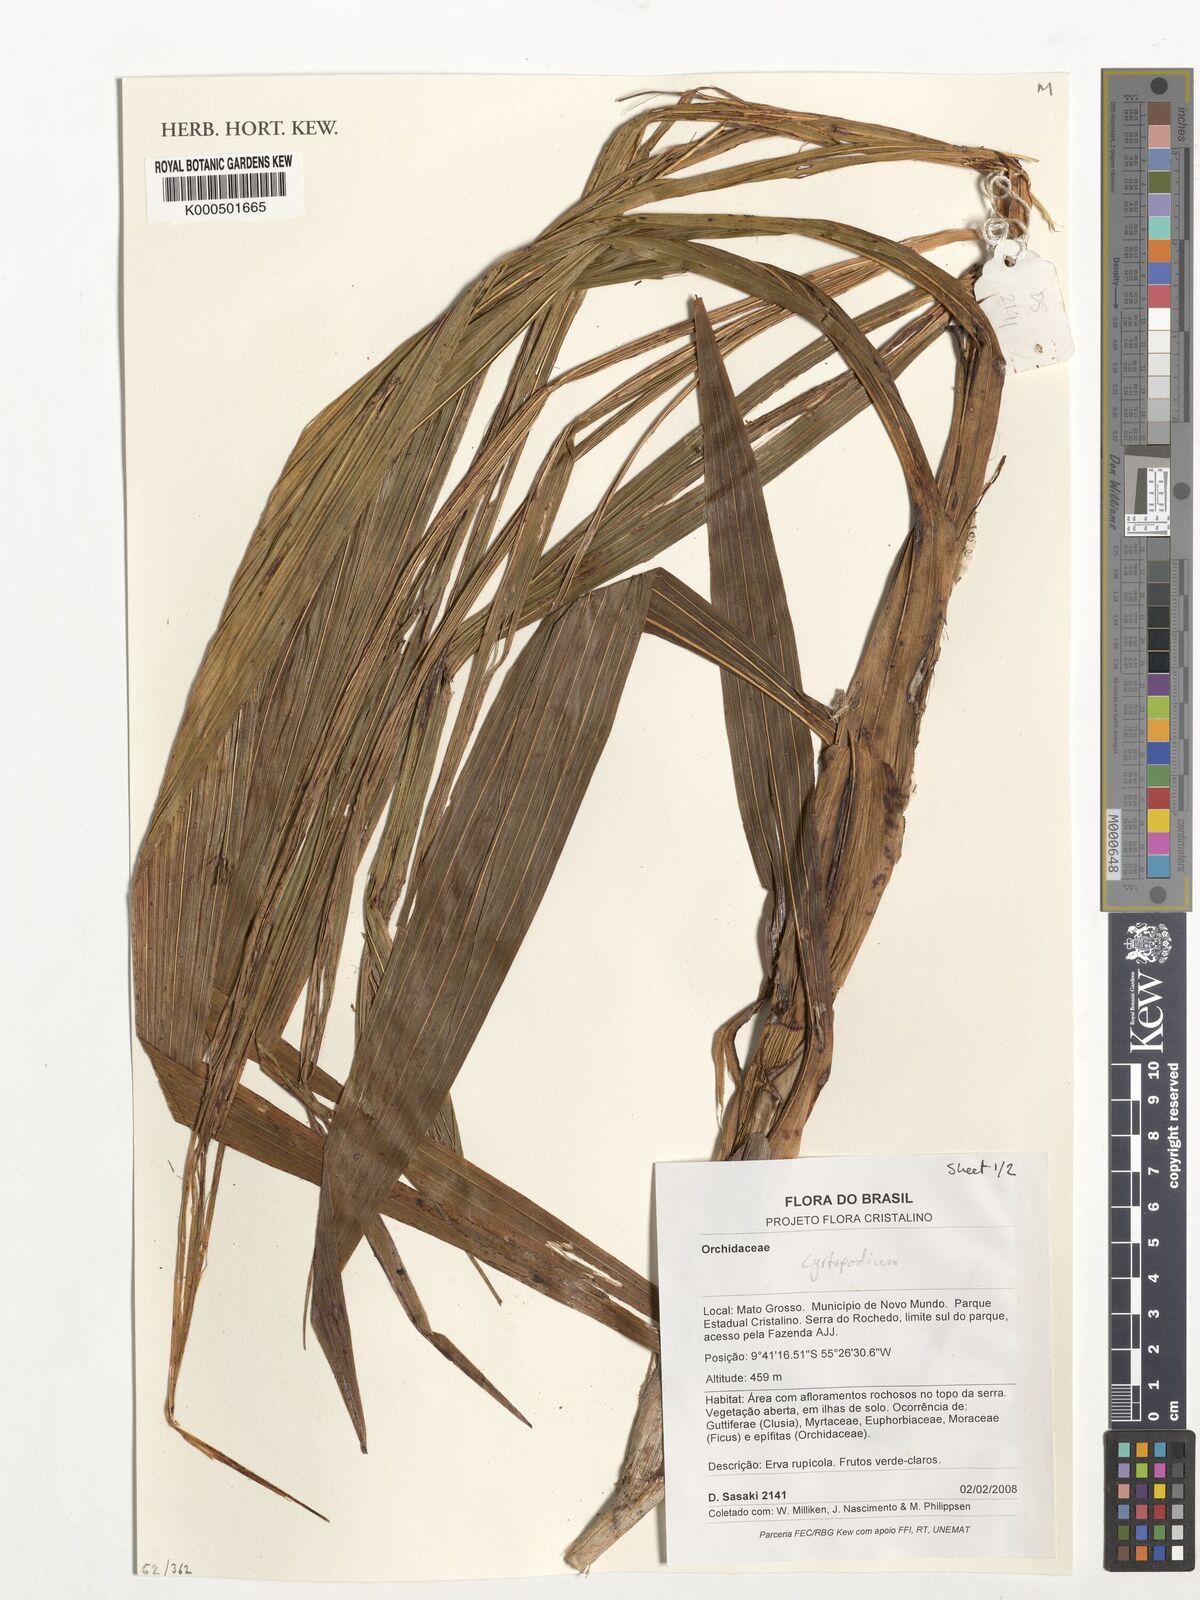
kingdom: Plantae
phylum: Tracheophyta
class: Liliopsida
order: Asparagales
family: Orchidaceae
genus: Cyrtopodium
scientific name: Cyrtopodium
